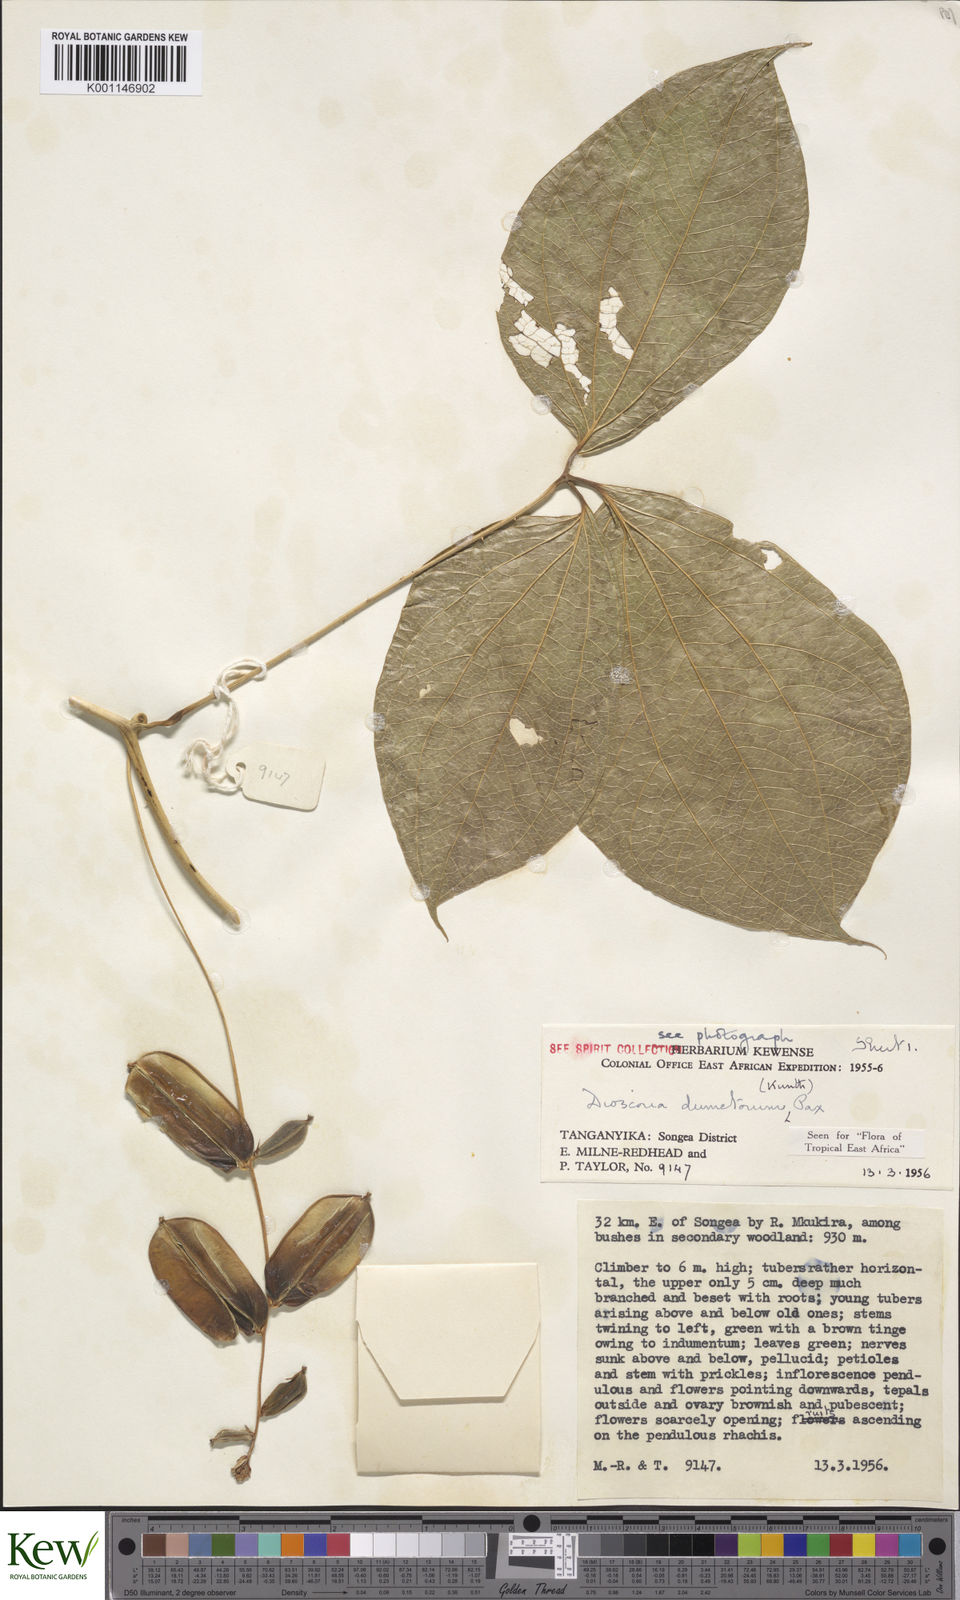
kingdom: Plantae
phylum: Tracheophyta
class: Liliopsida
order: Dioscoreales
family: Dioscoreaceae
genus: Dioscorea
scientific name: Dioscorea dumetorum
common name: African bitter yam
